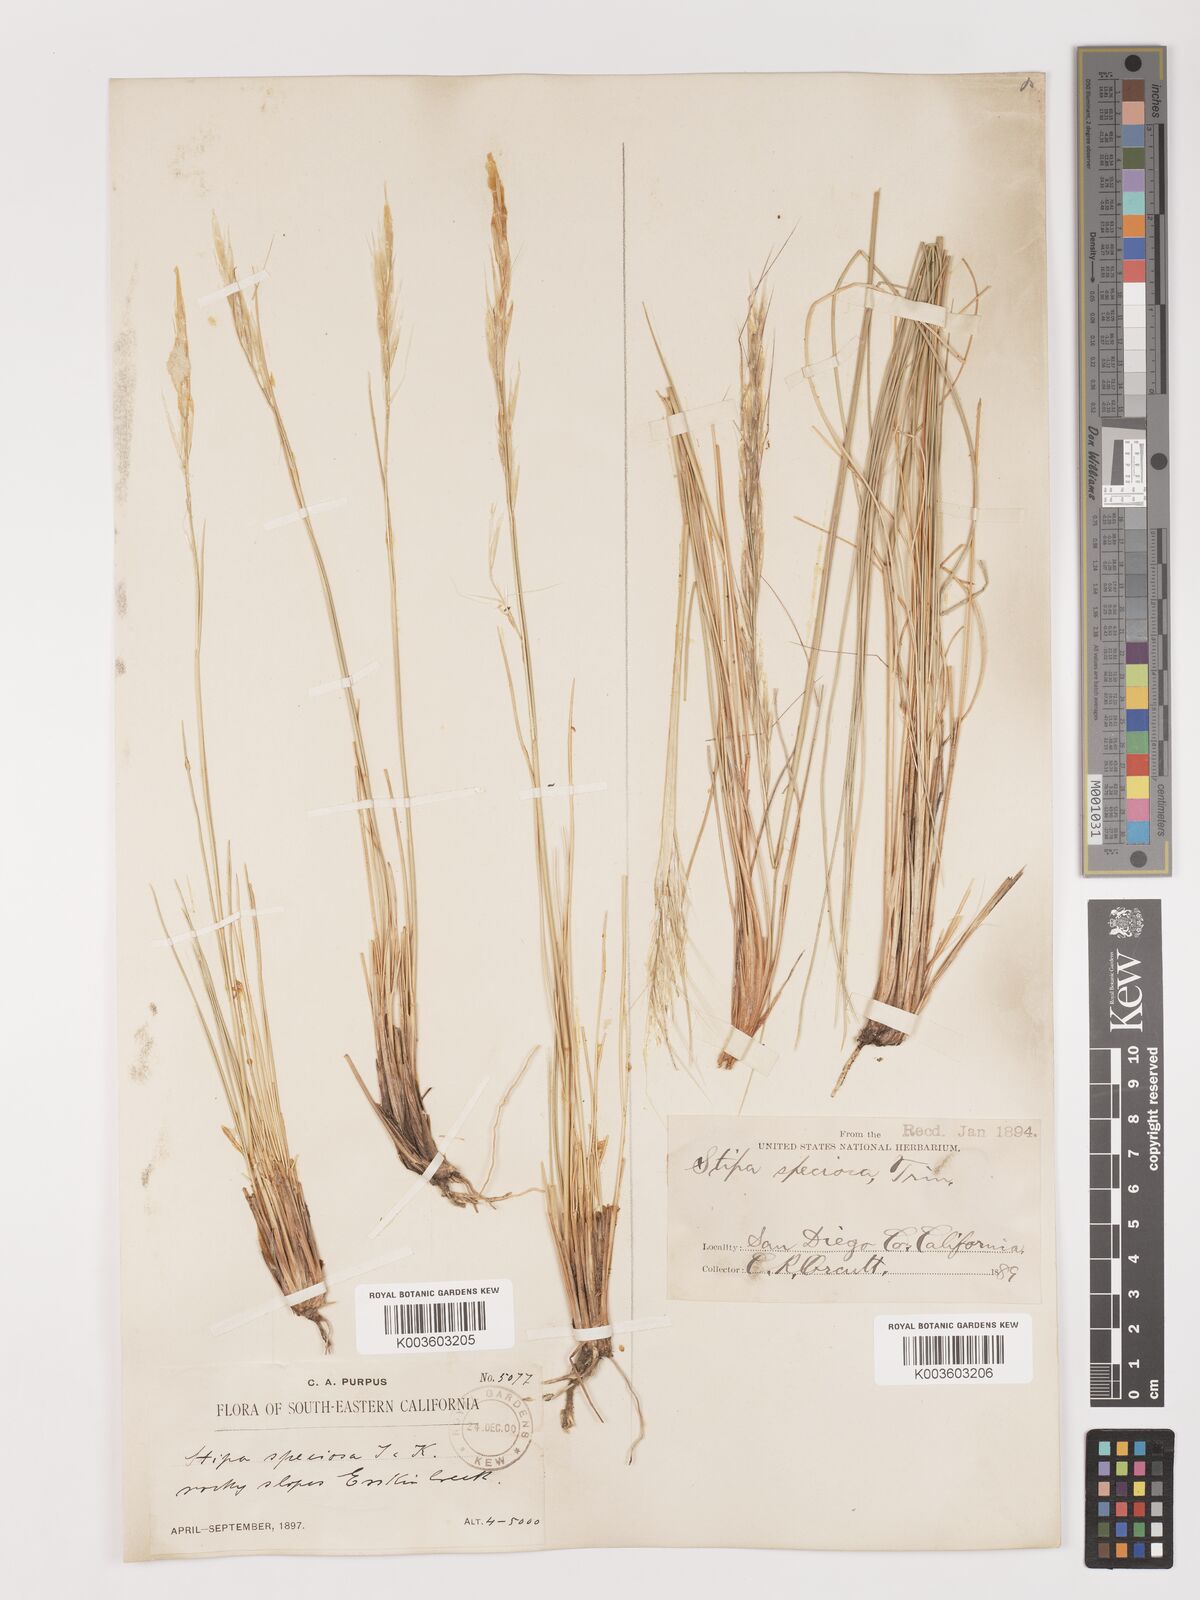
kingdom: Plantae
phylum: Tracheophyta
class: Liliopsida
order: Poales
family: Poaceae
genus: Pappostipa
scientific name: Pappostipa speciosa
